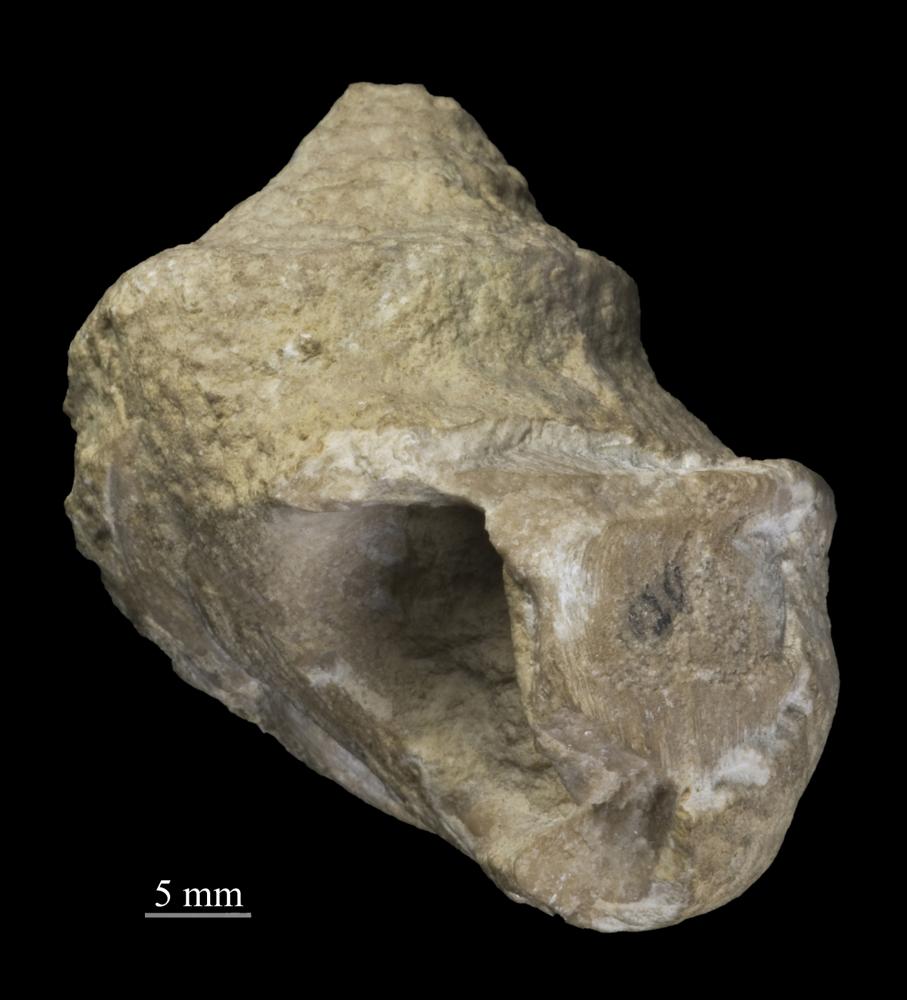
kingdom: Animalia
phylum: Mollusca
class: Gastropoda
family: Lophospiridae
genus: Ruedemannia
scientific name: Ruedemannia Worthenia borkholmiensis
